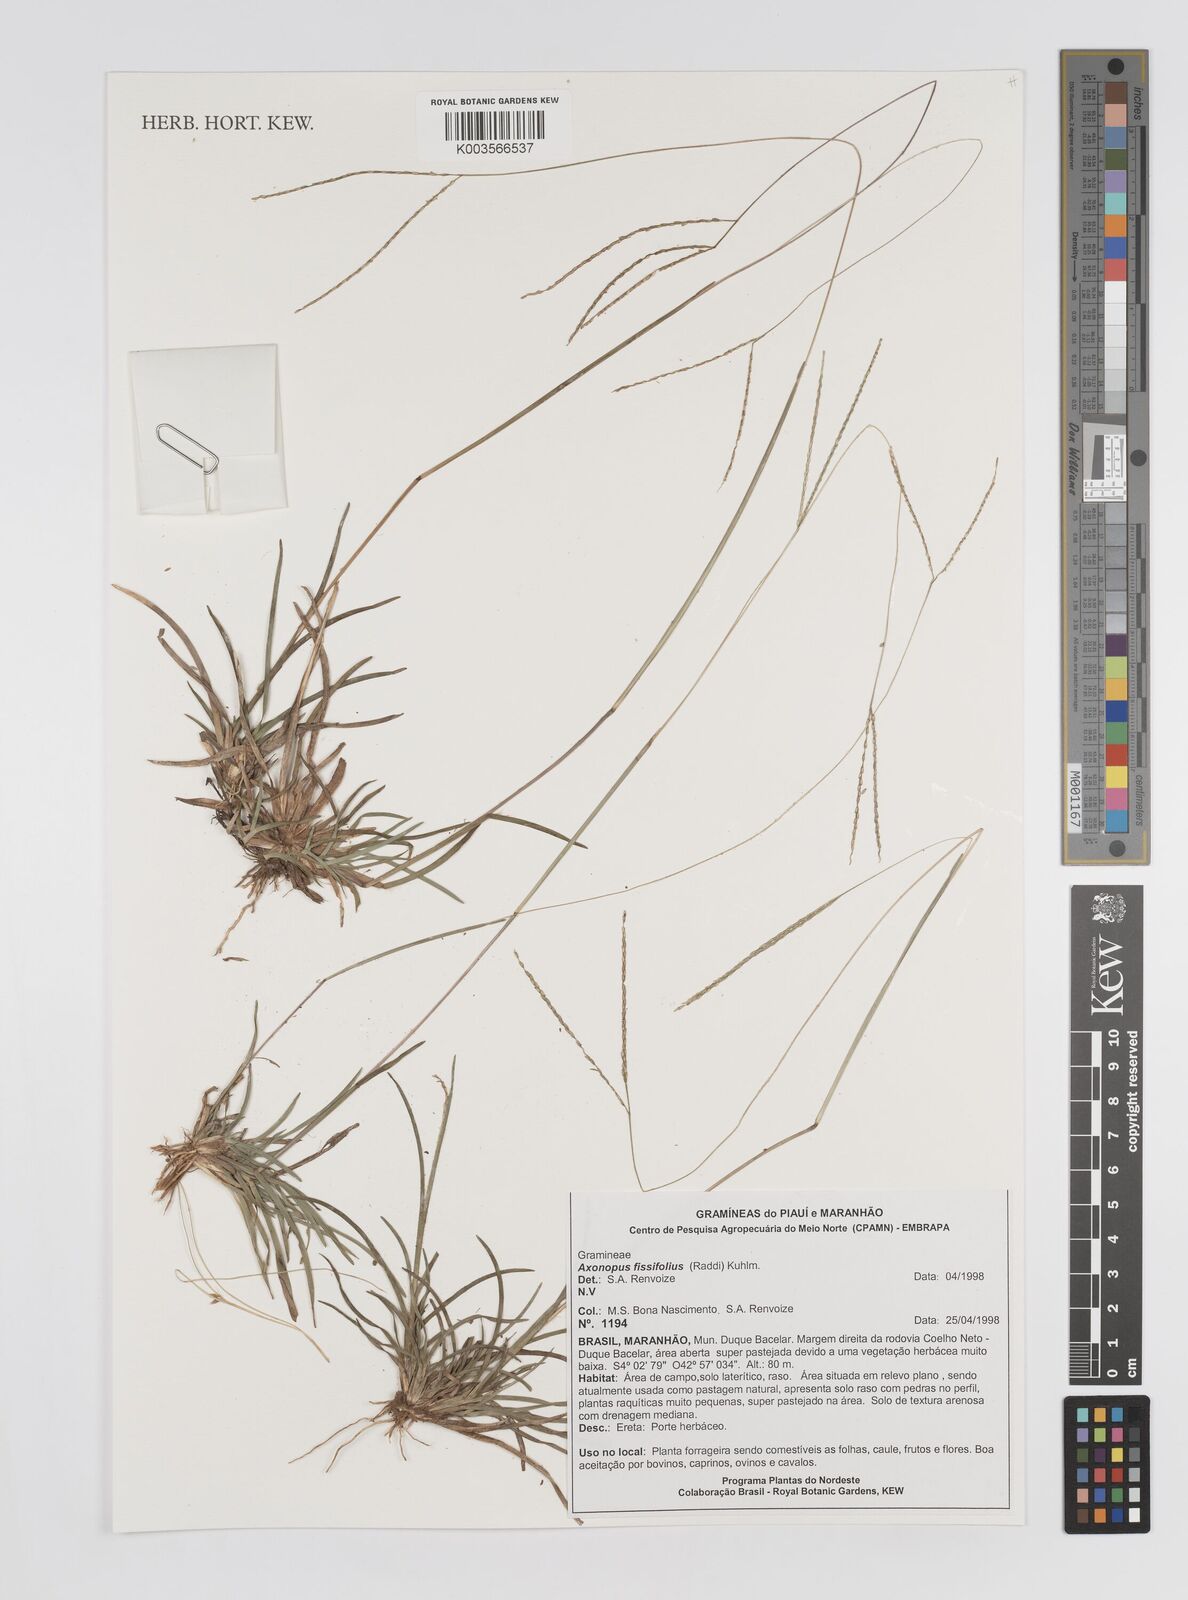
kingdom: Plantae
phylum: Tracheophyta
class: Liliopsida
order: Poales
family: Poaceae
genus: Axonopus
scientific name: Axonopus fissifolius
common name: Common carpetgrass
